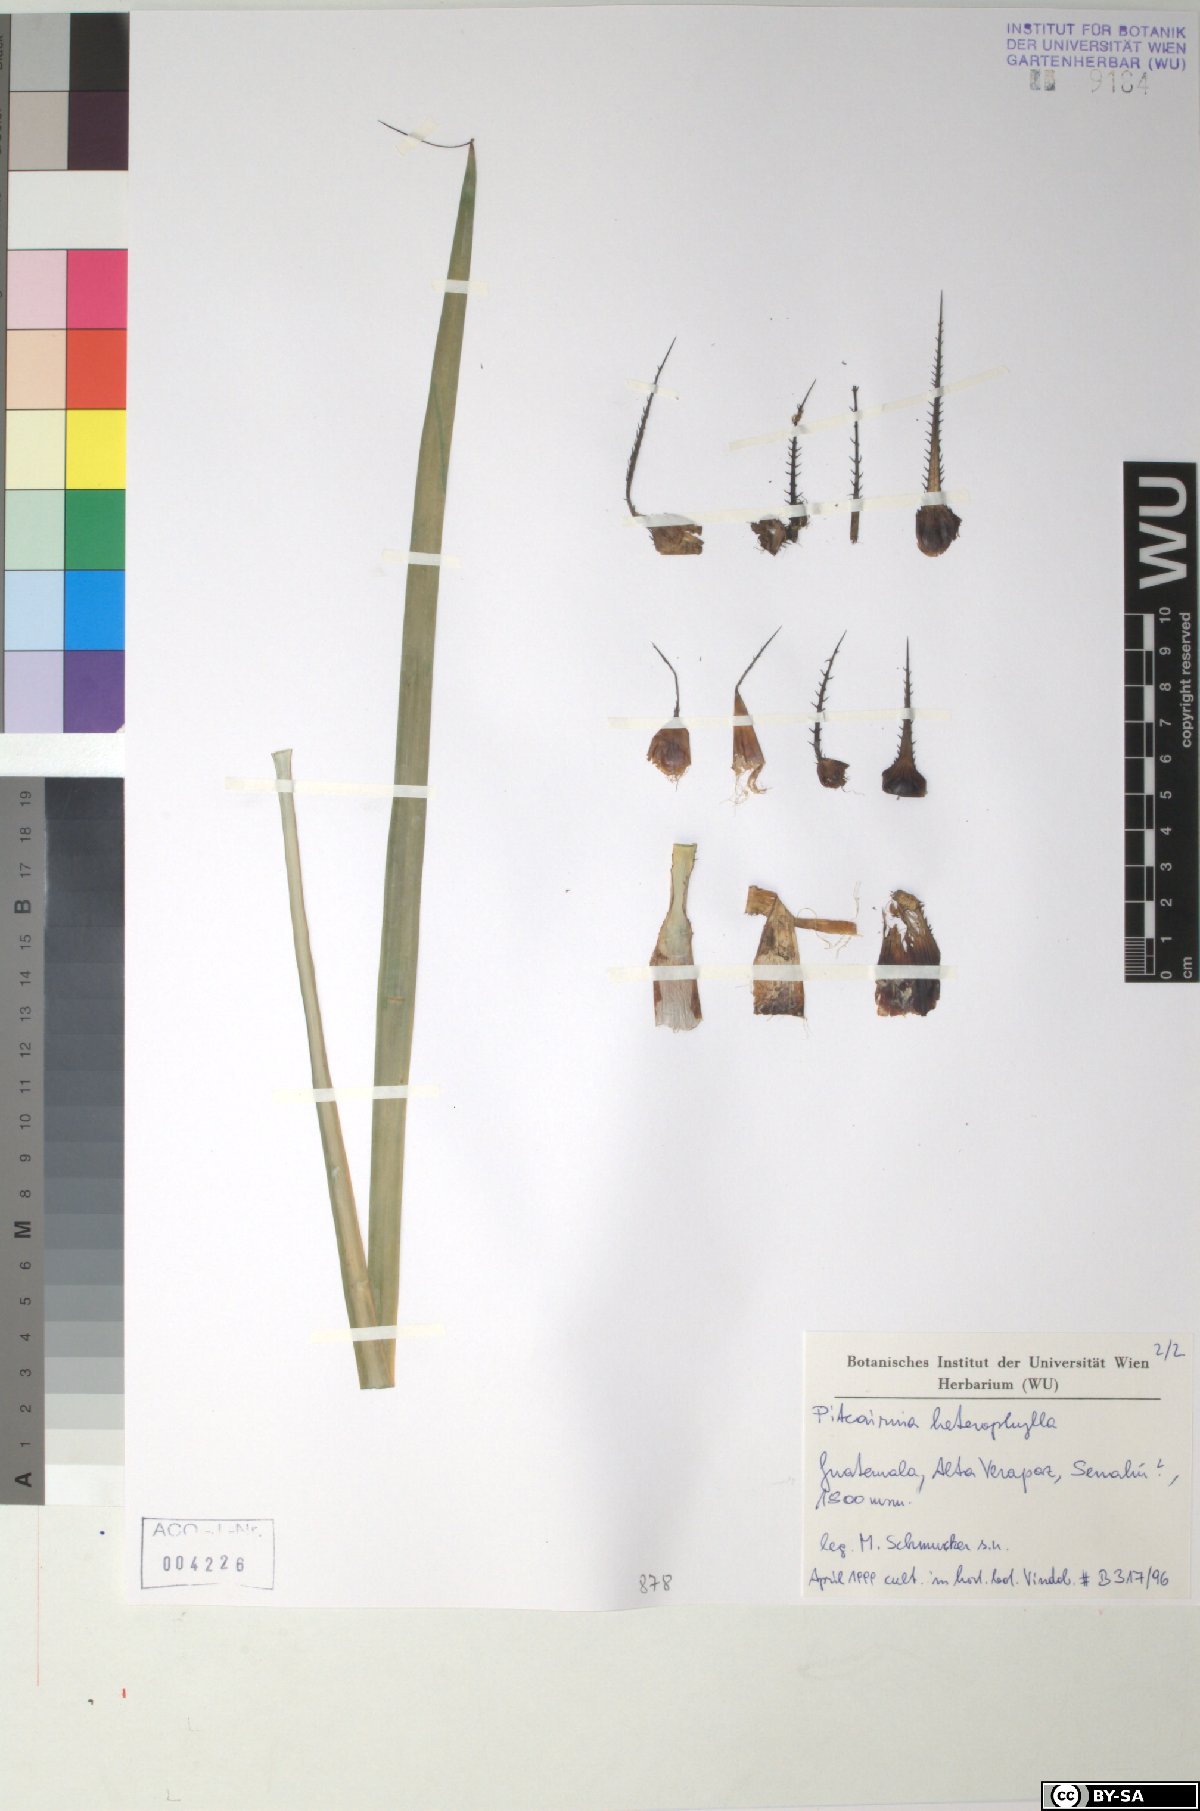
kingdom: Plantae
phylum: Tracheophyta
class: Liliopsida
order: Poales
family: Bromeliaceae
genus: Pitcairnia
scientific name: Pitcairnia heterophylla
